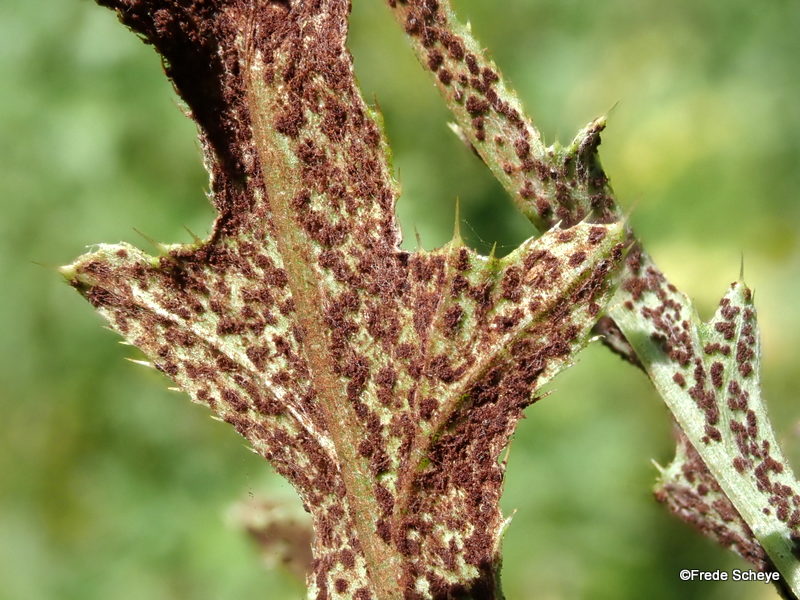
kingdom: Fungi
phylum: Basidiomycota
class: Pucciniomycetes
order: Pucciniales
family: Pucciniaceae
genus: Puccinia
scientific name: Puccinia suaveolens
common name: tidsel-tvecellerust
